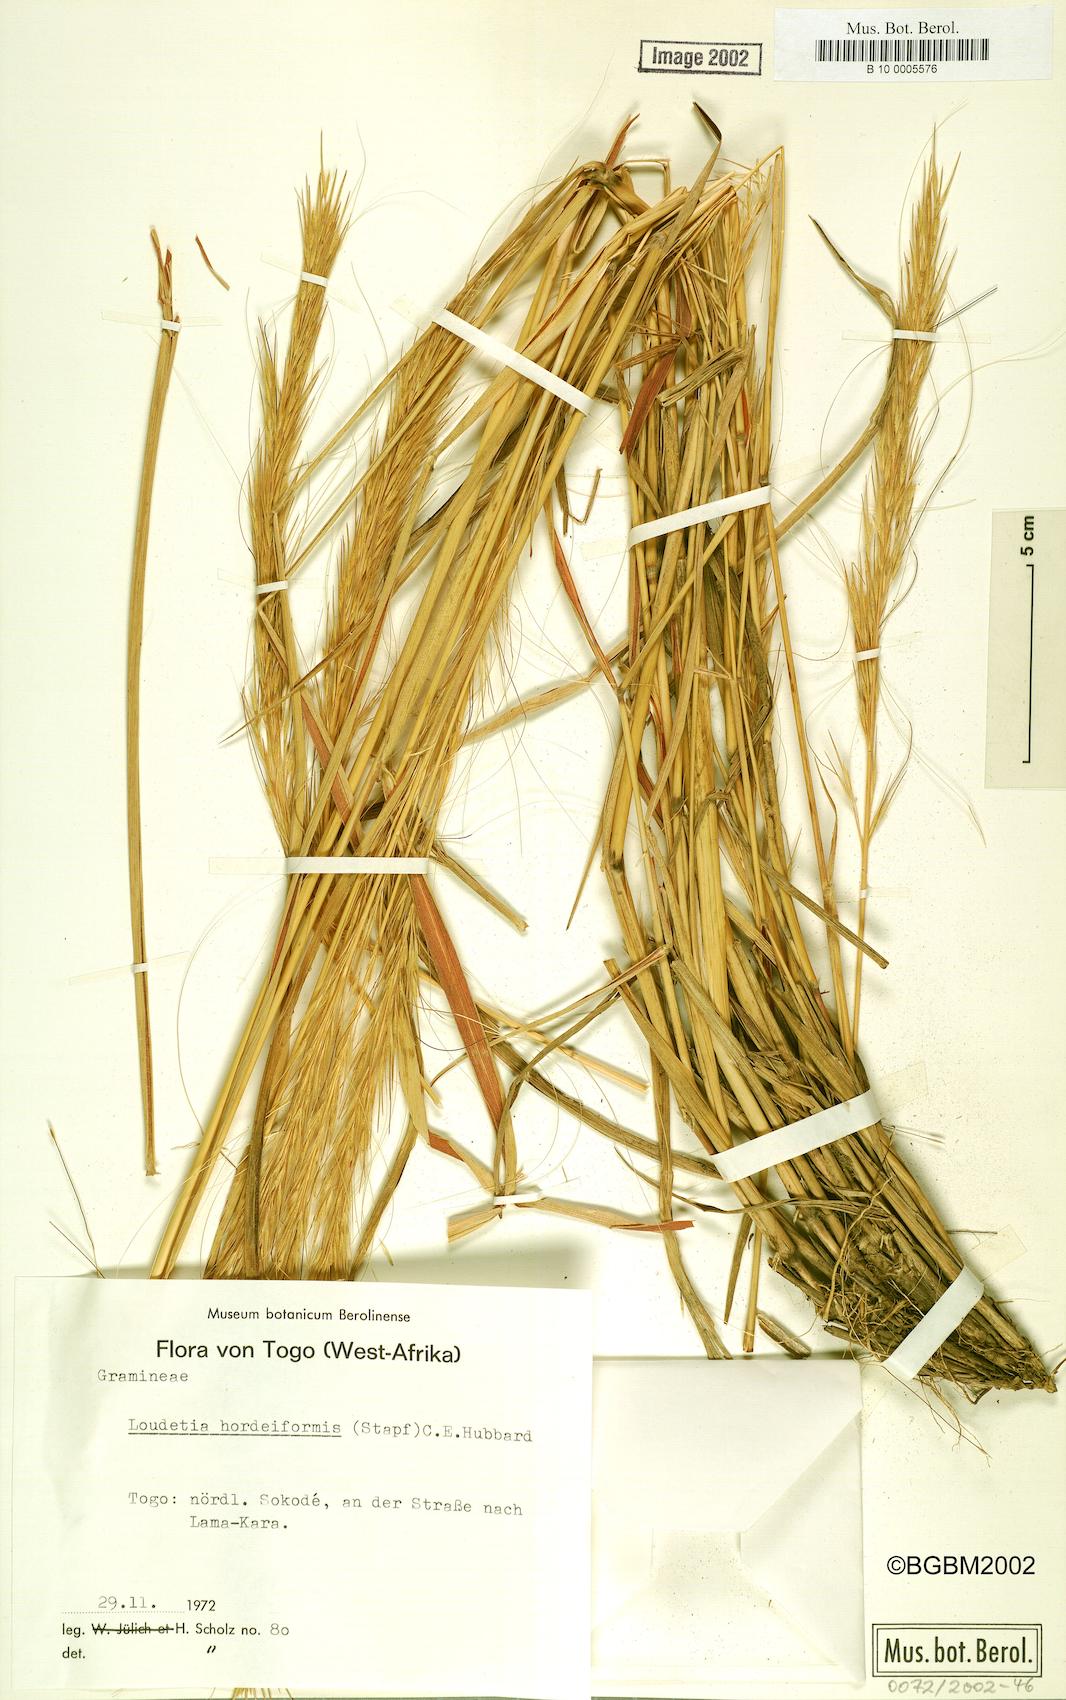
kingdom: Plantae
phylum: Tracheophyta
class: Liliopsida
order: Poales
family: Poaceae
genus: Loudetia
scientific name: Loudetia hordeiformis
